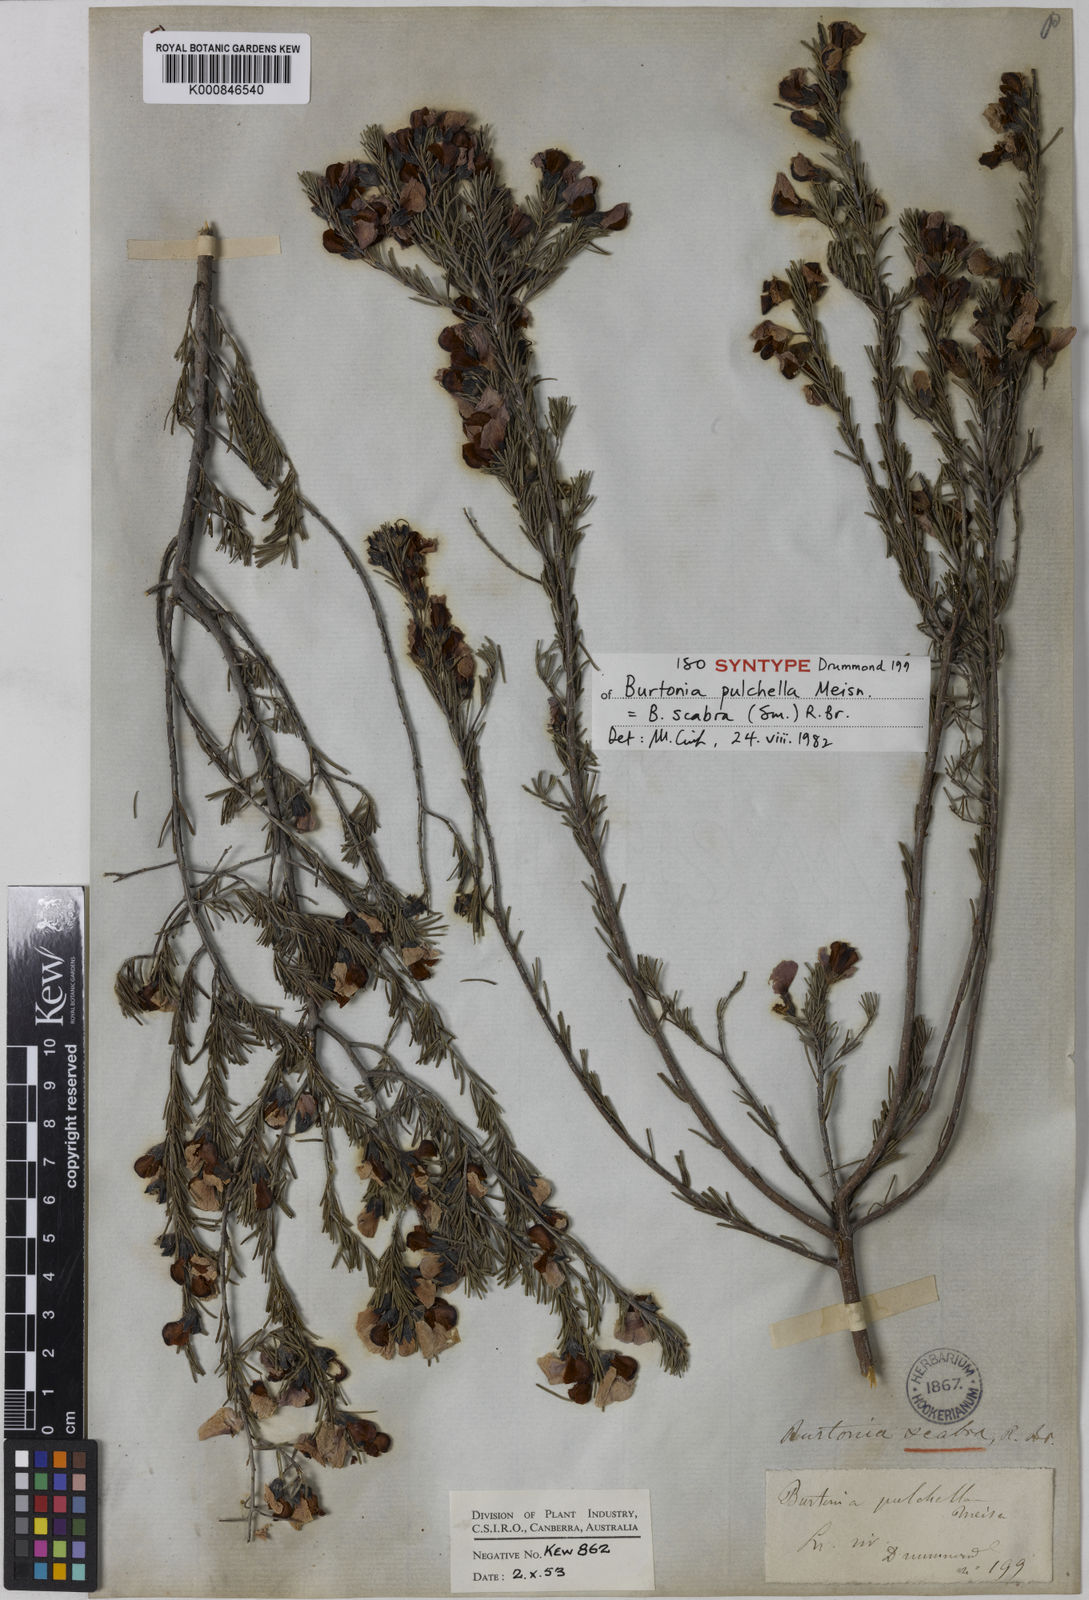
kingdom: Plantae
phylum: Tracheophyta
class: Magnoliopsida
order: Fabales
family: Fabaceae
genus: Gompholobium
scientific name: Gompholobium scabrum
